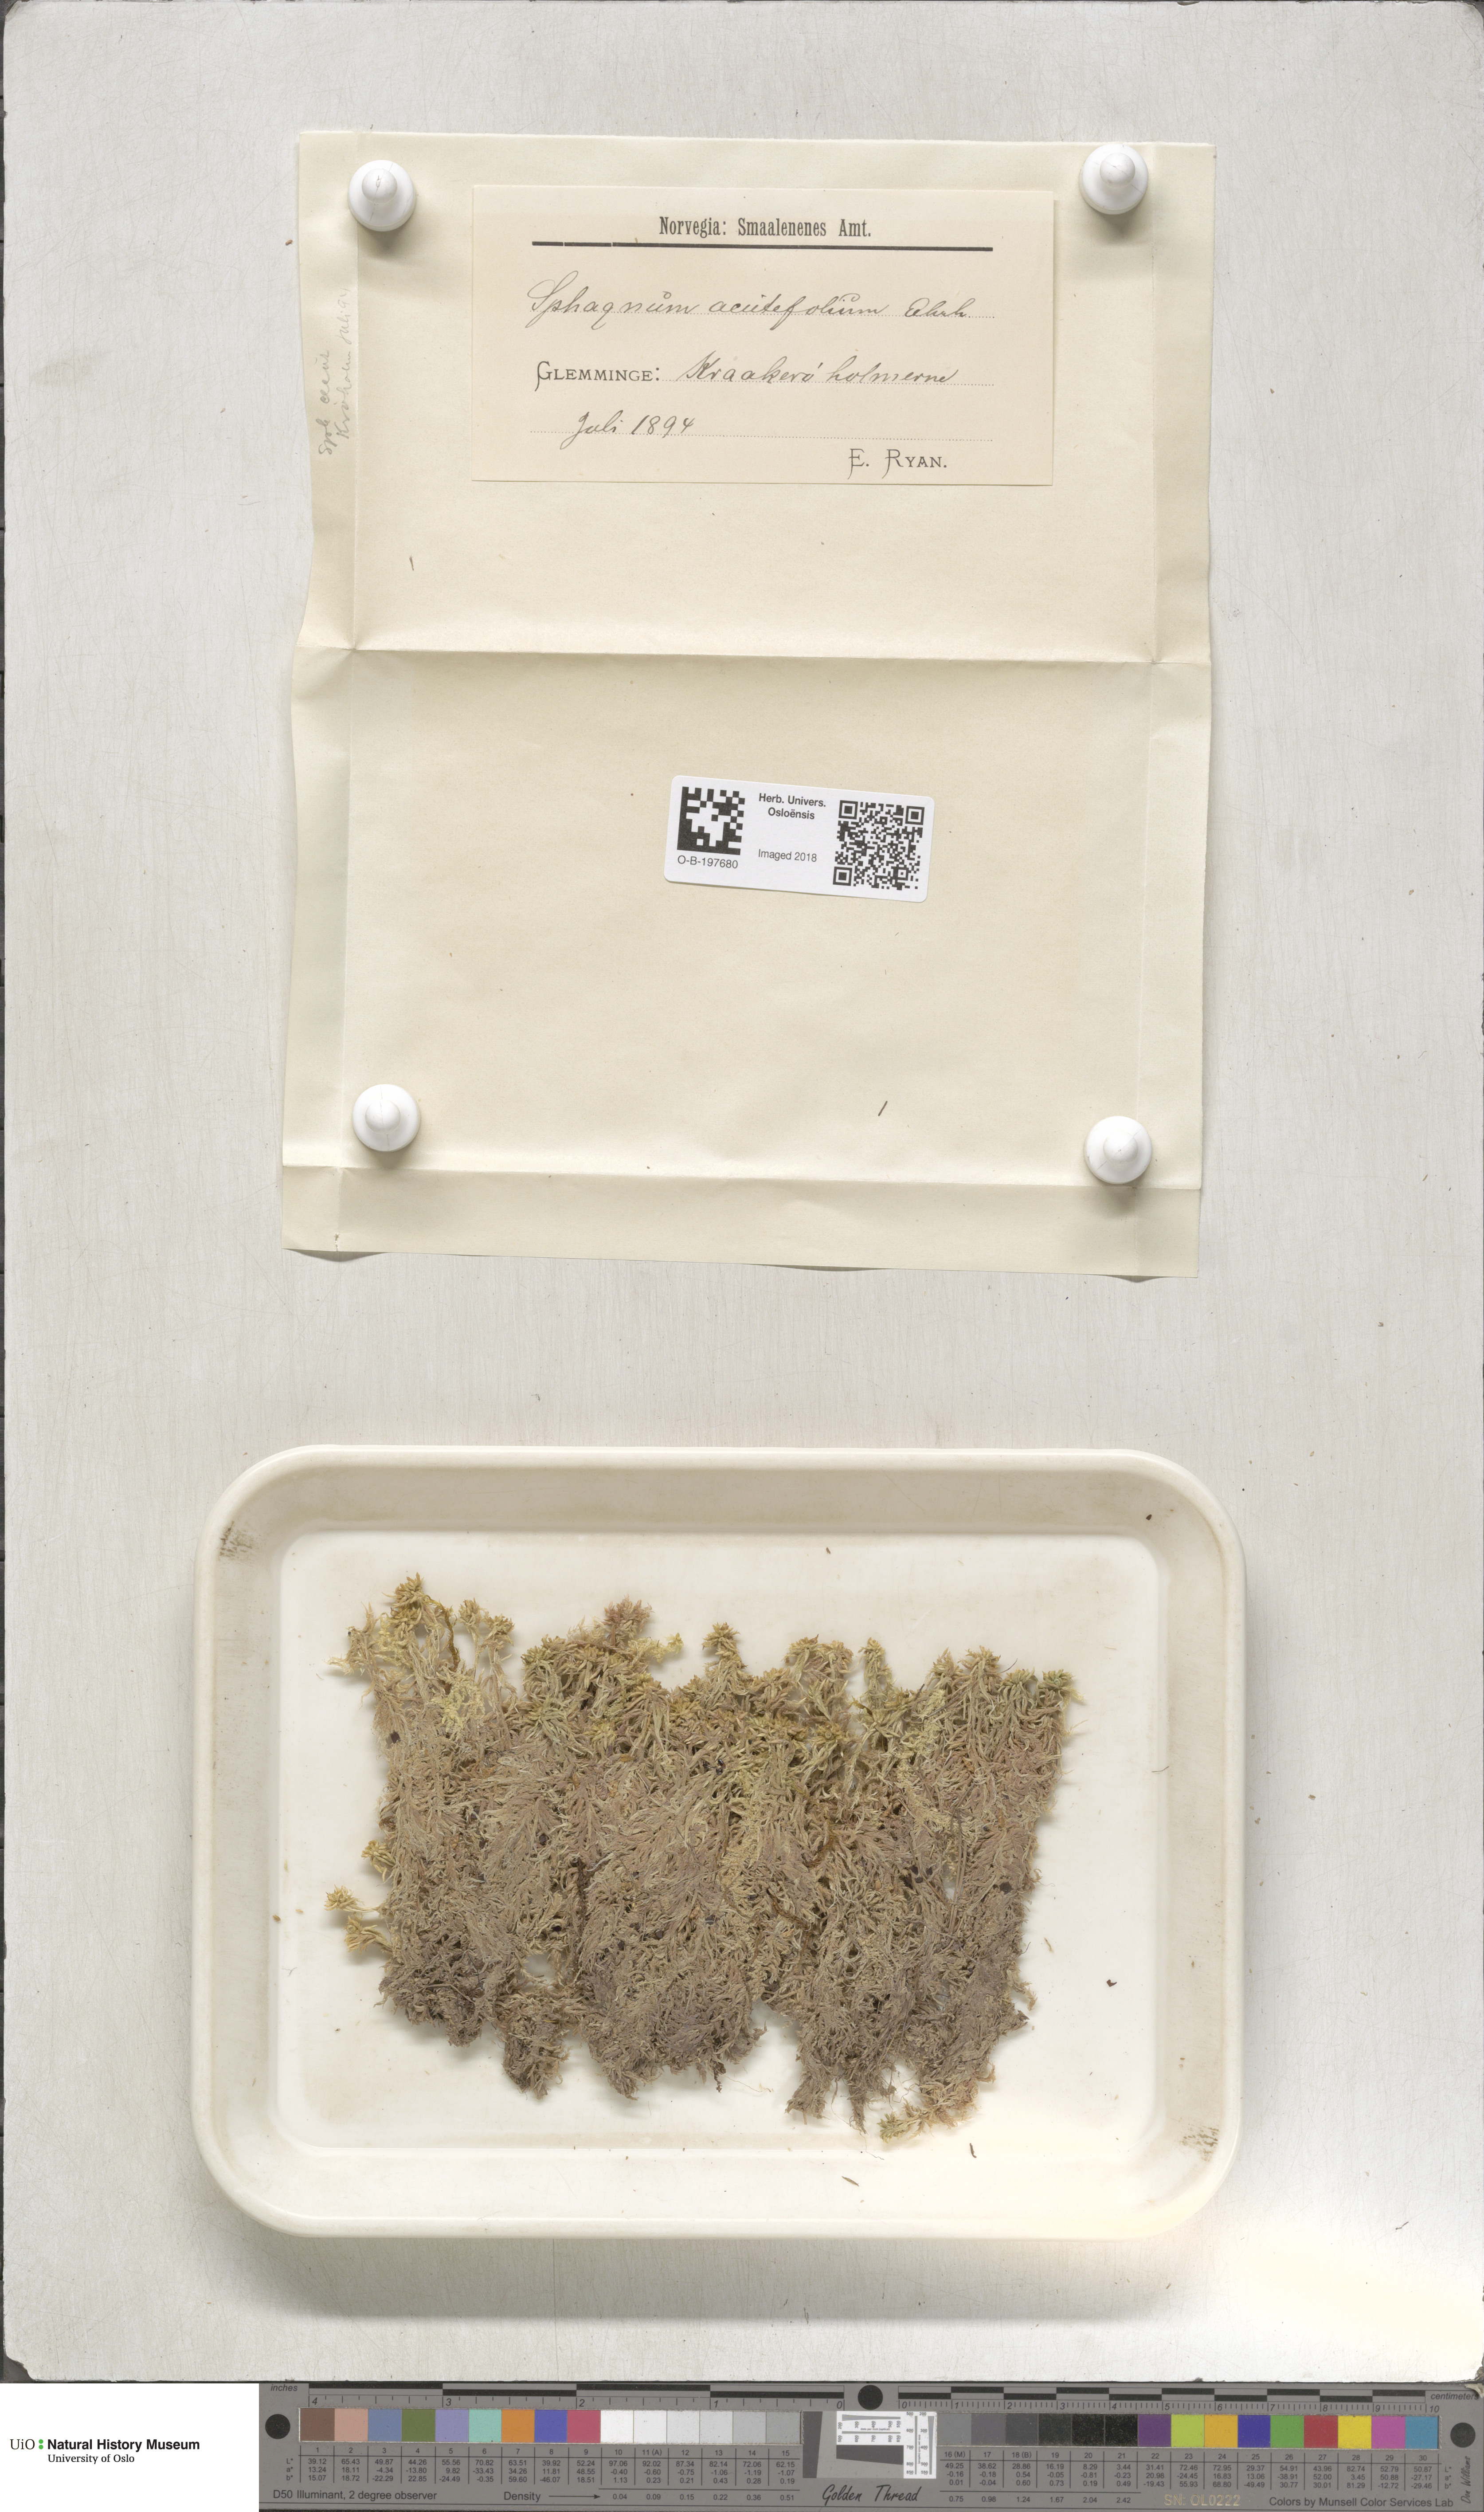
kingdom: Plantae
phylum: Bryophyta
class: Sphagnopsida
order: Sphagnales
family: Sphagnaceae
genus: Sphagnum
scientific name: Sphagnum capillifolium
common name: Small red peat moss
